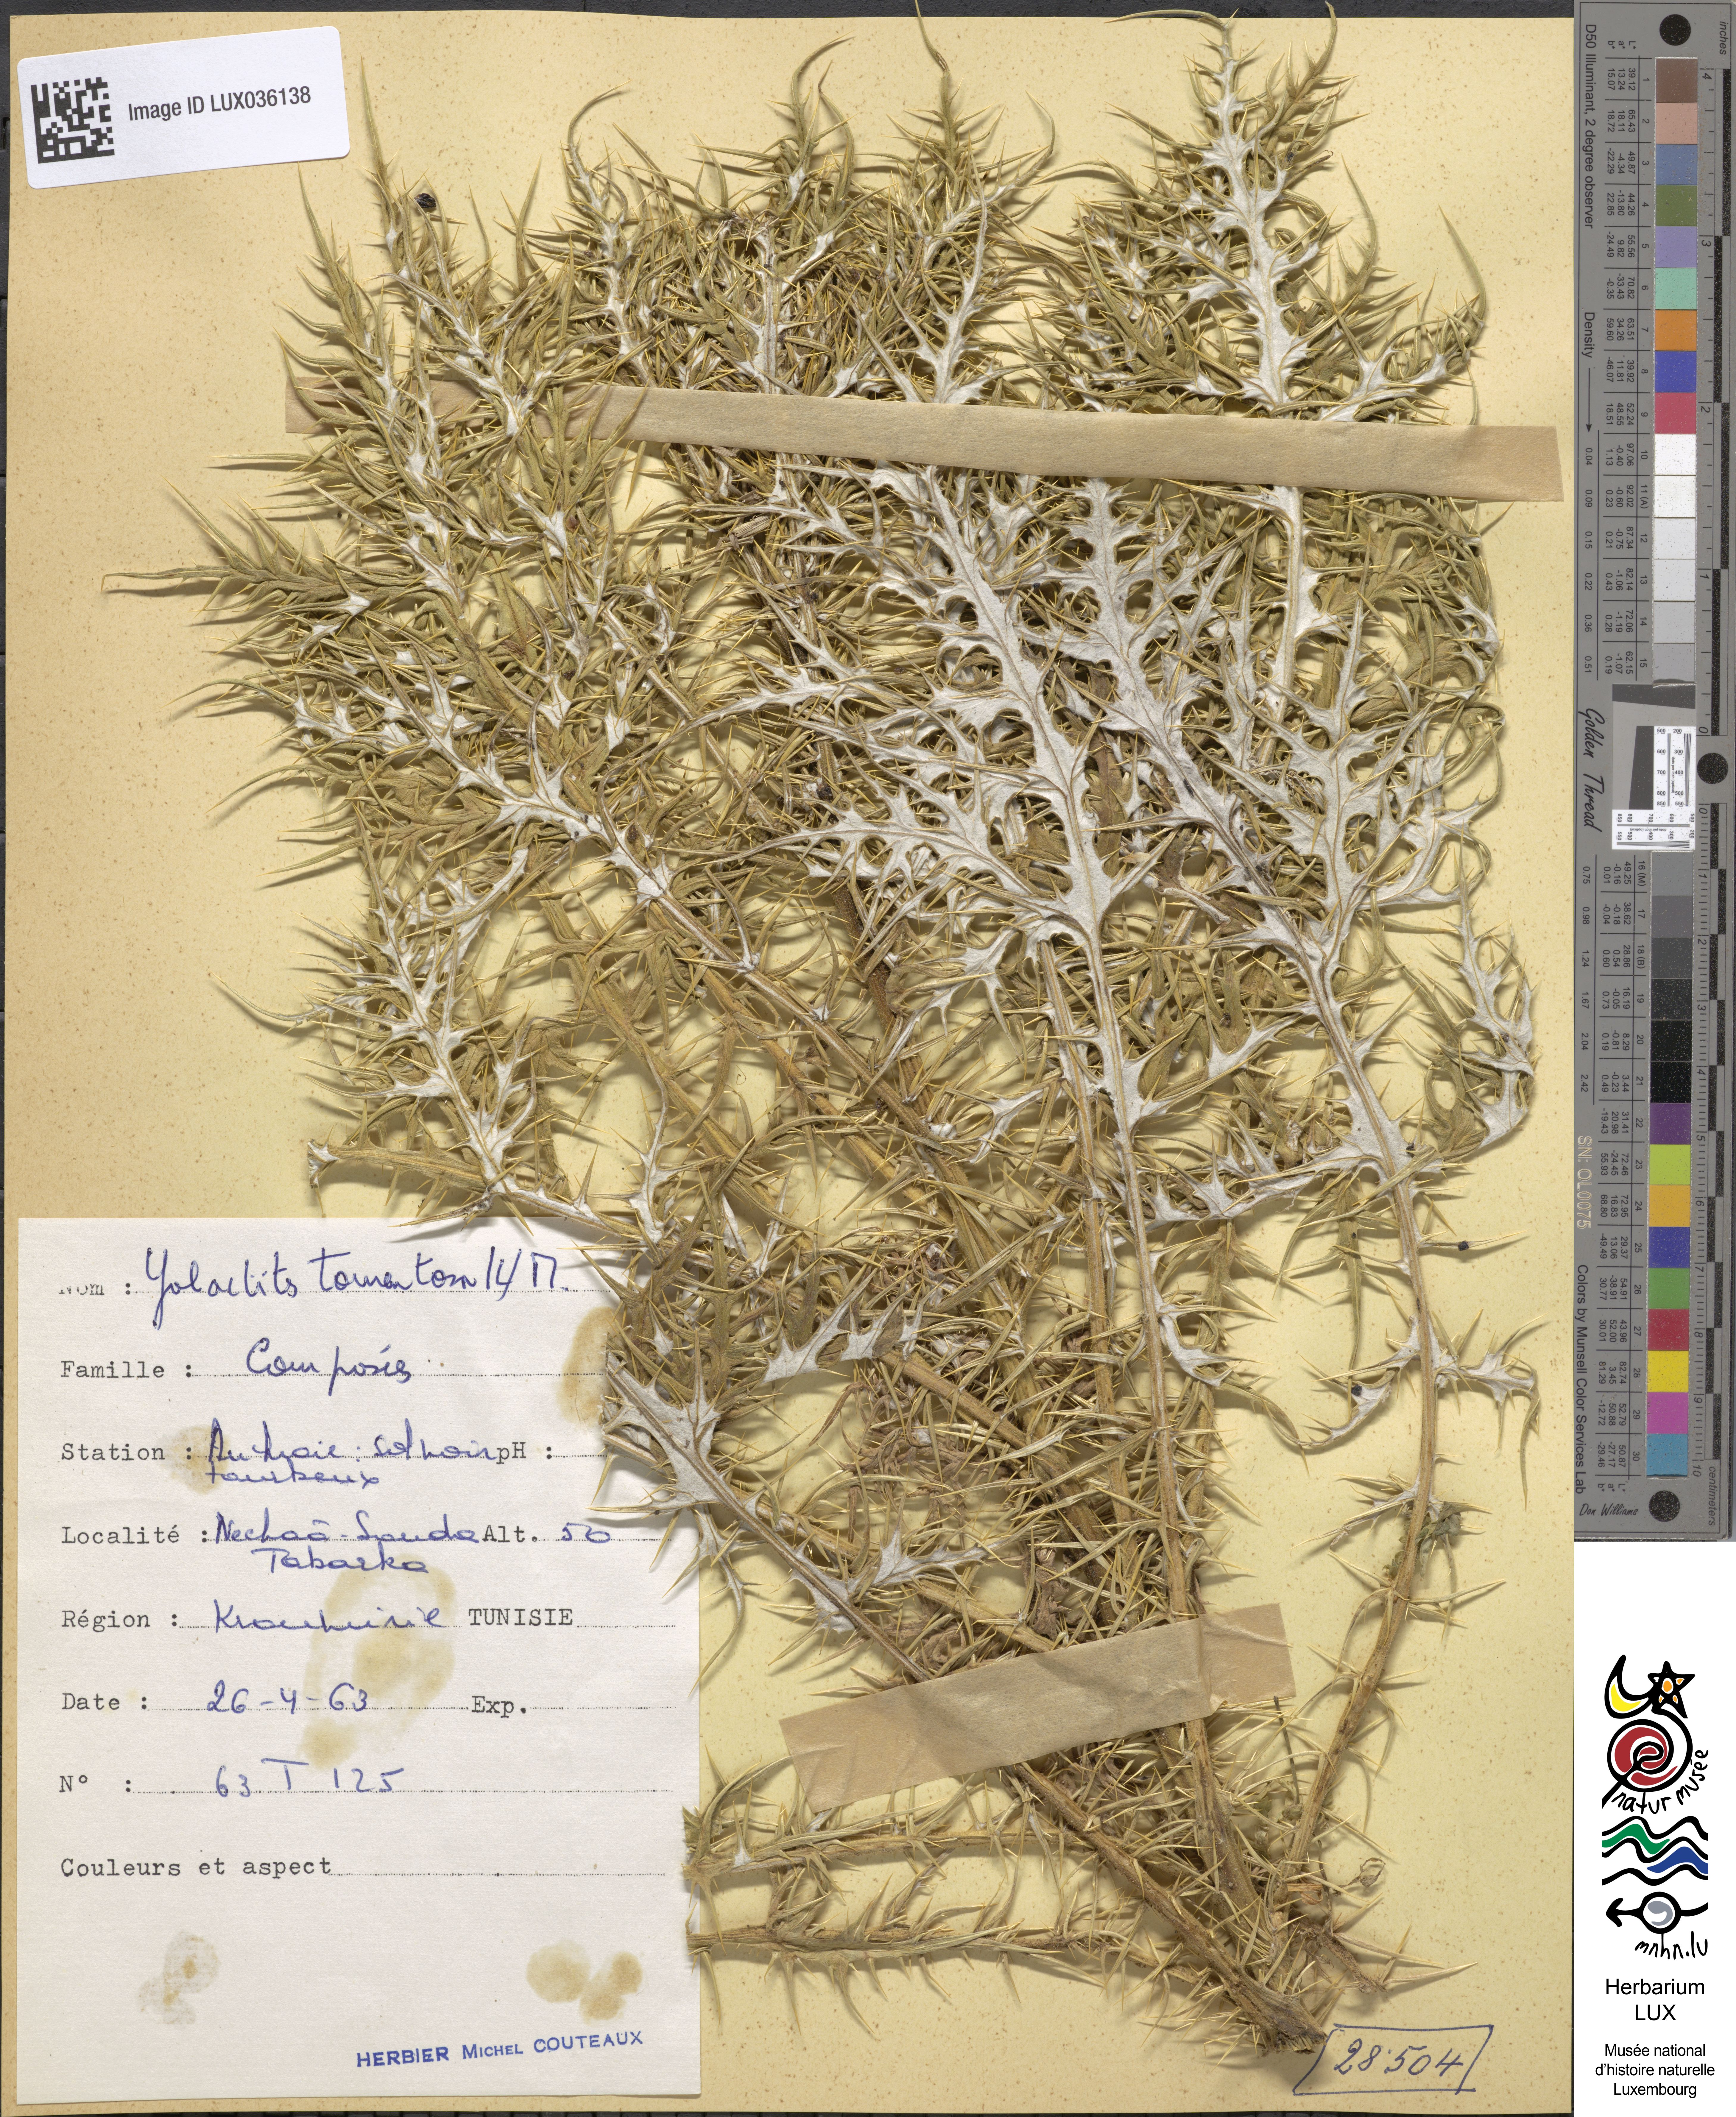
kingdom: Plantae
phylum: Tracheophyta
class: Magnoliopsida
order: Asterales
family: Asteraceae
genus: Galactites
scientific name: Galactites tomentosa
